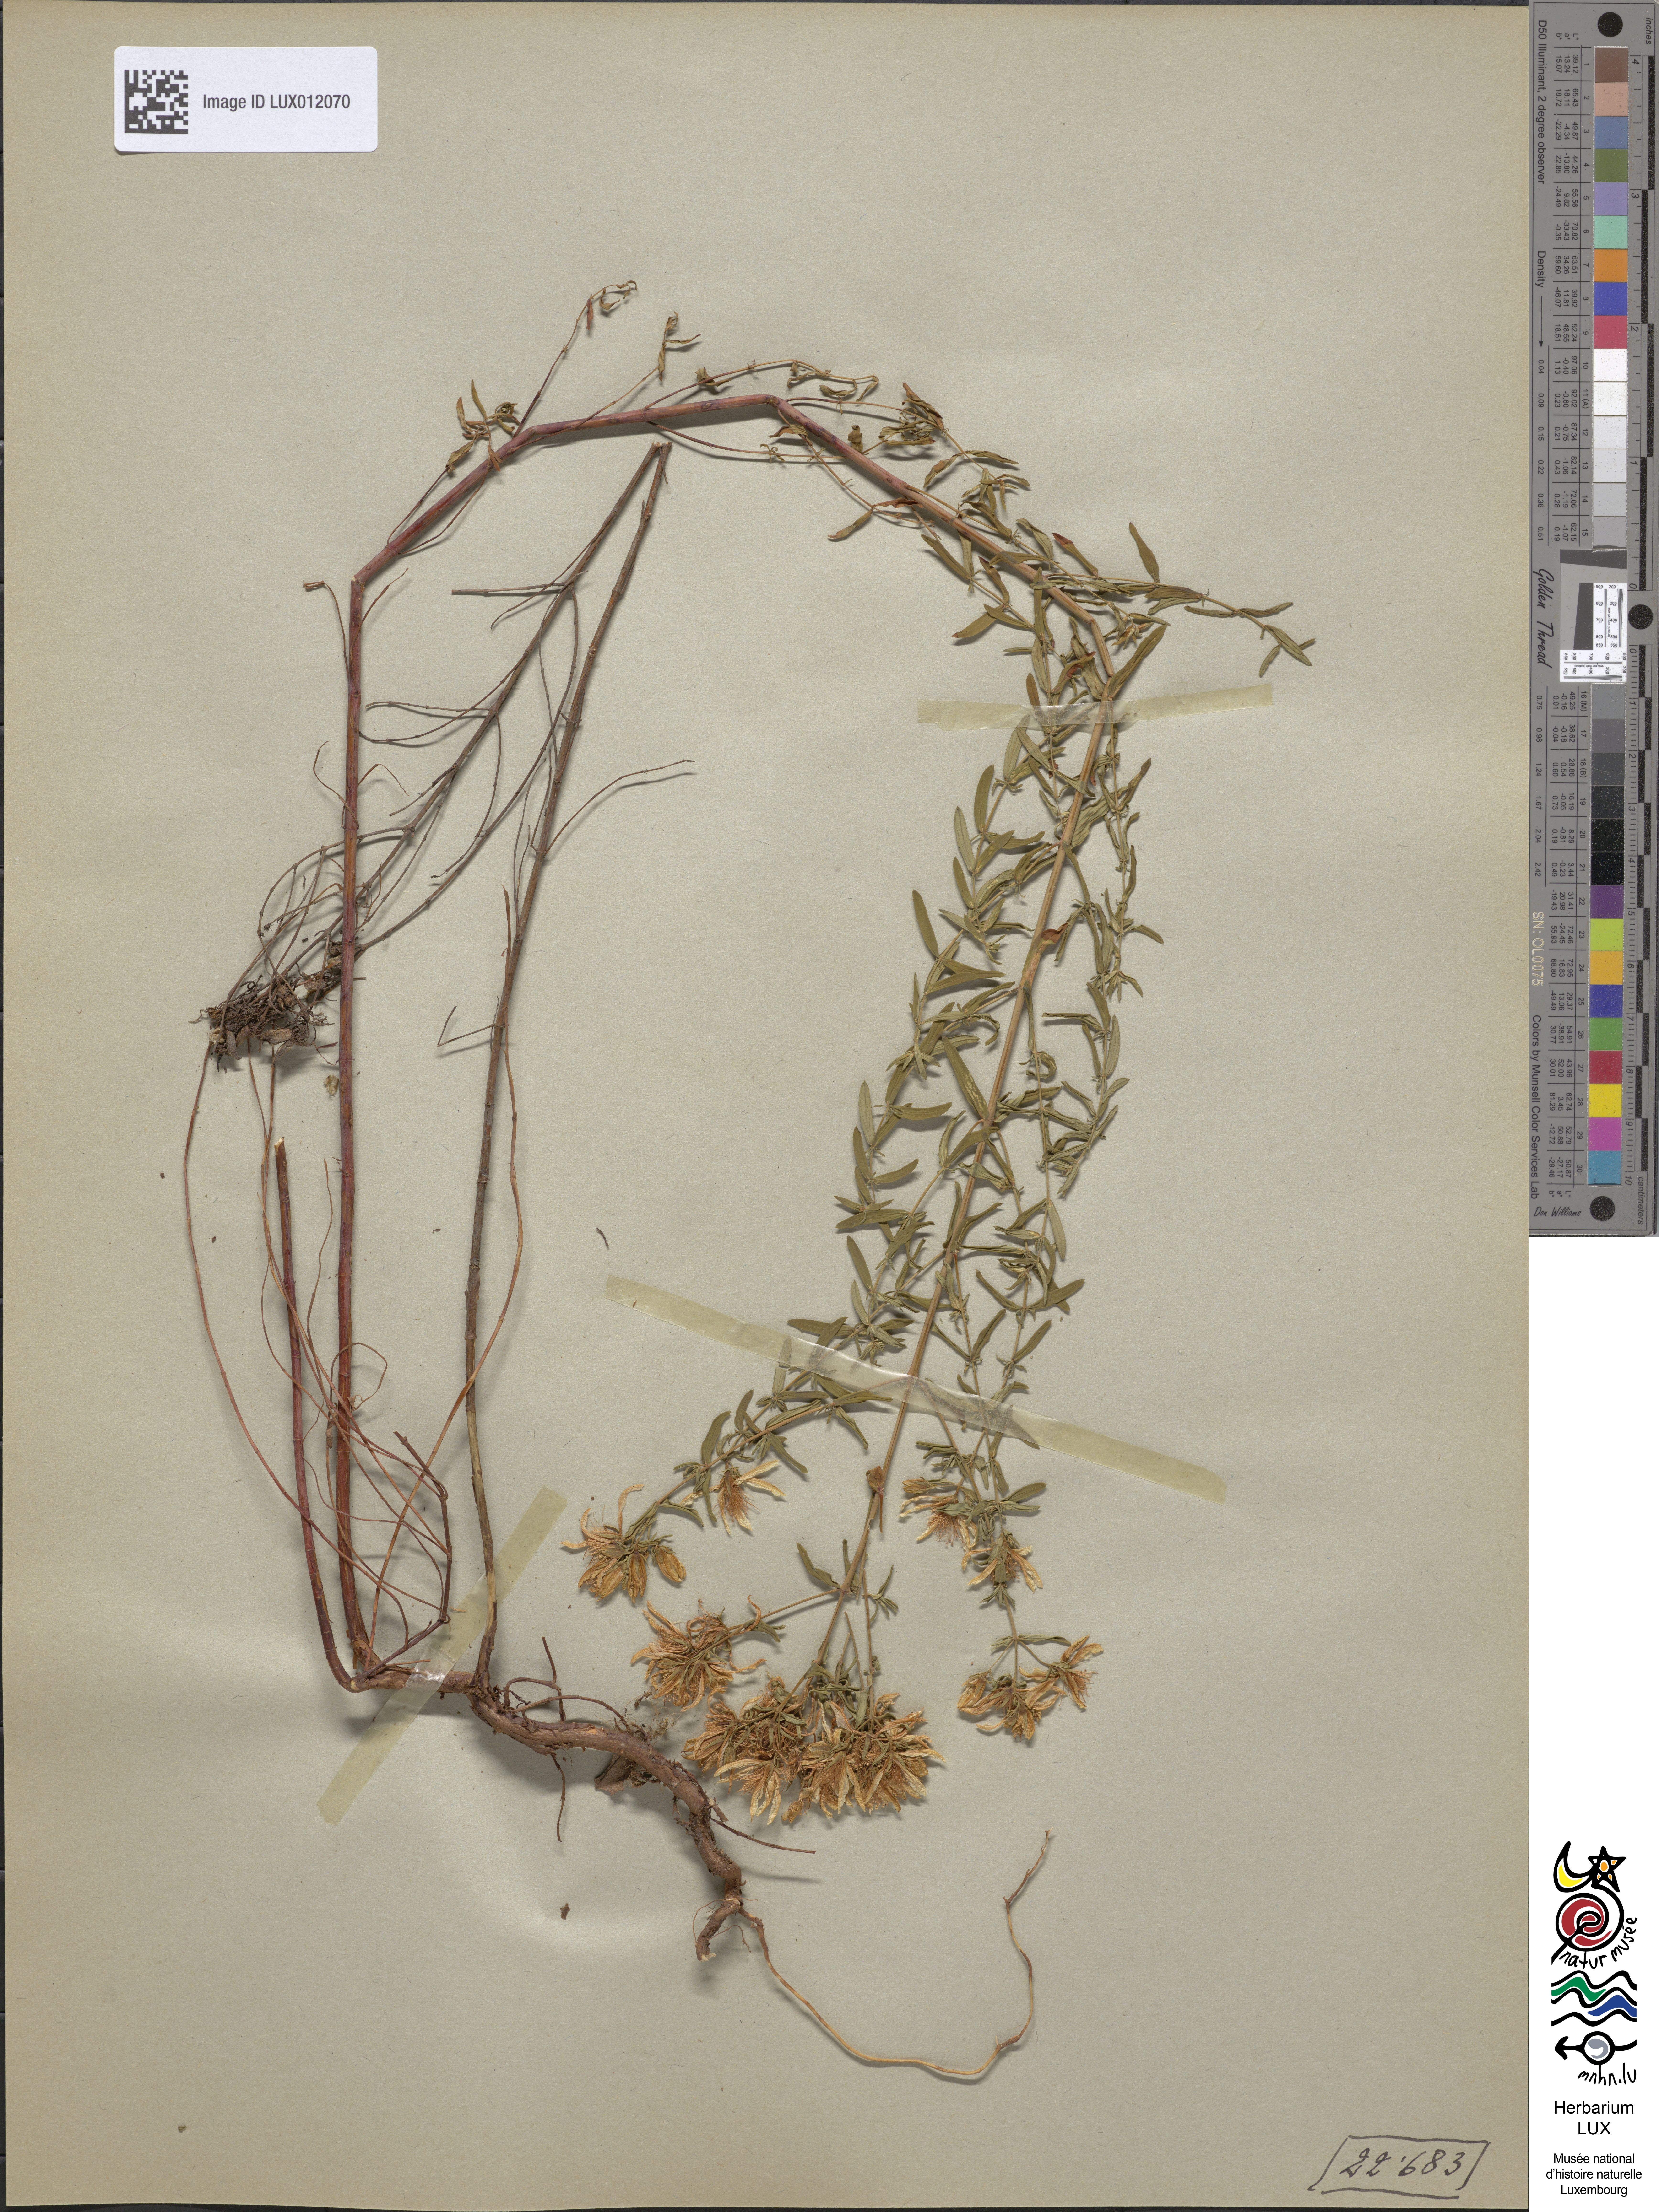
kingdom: Plantae
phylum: Tracheophyta
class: Magnoliopsida
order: Malpighiales
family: Hypericaceae
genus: Hypericum
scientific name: Hypericum perforatum
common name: Common st. johnswort
